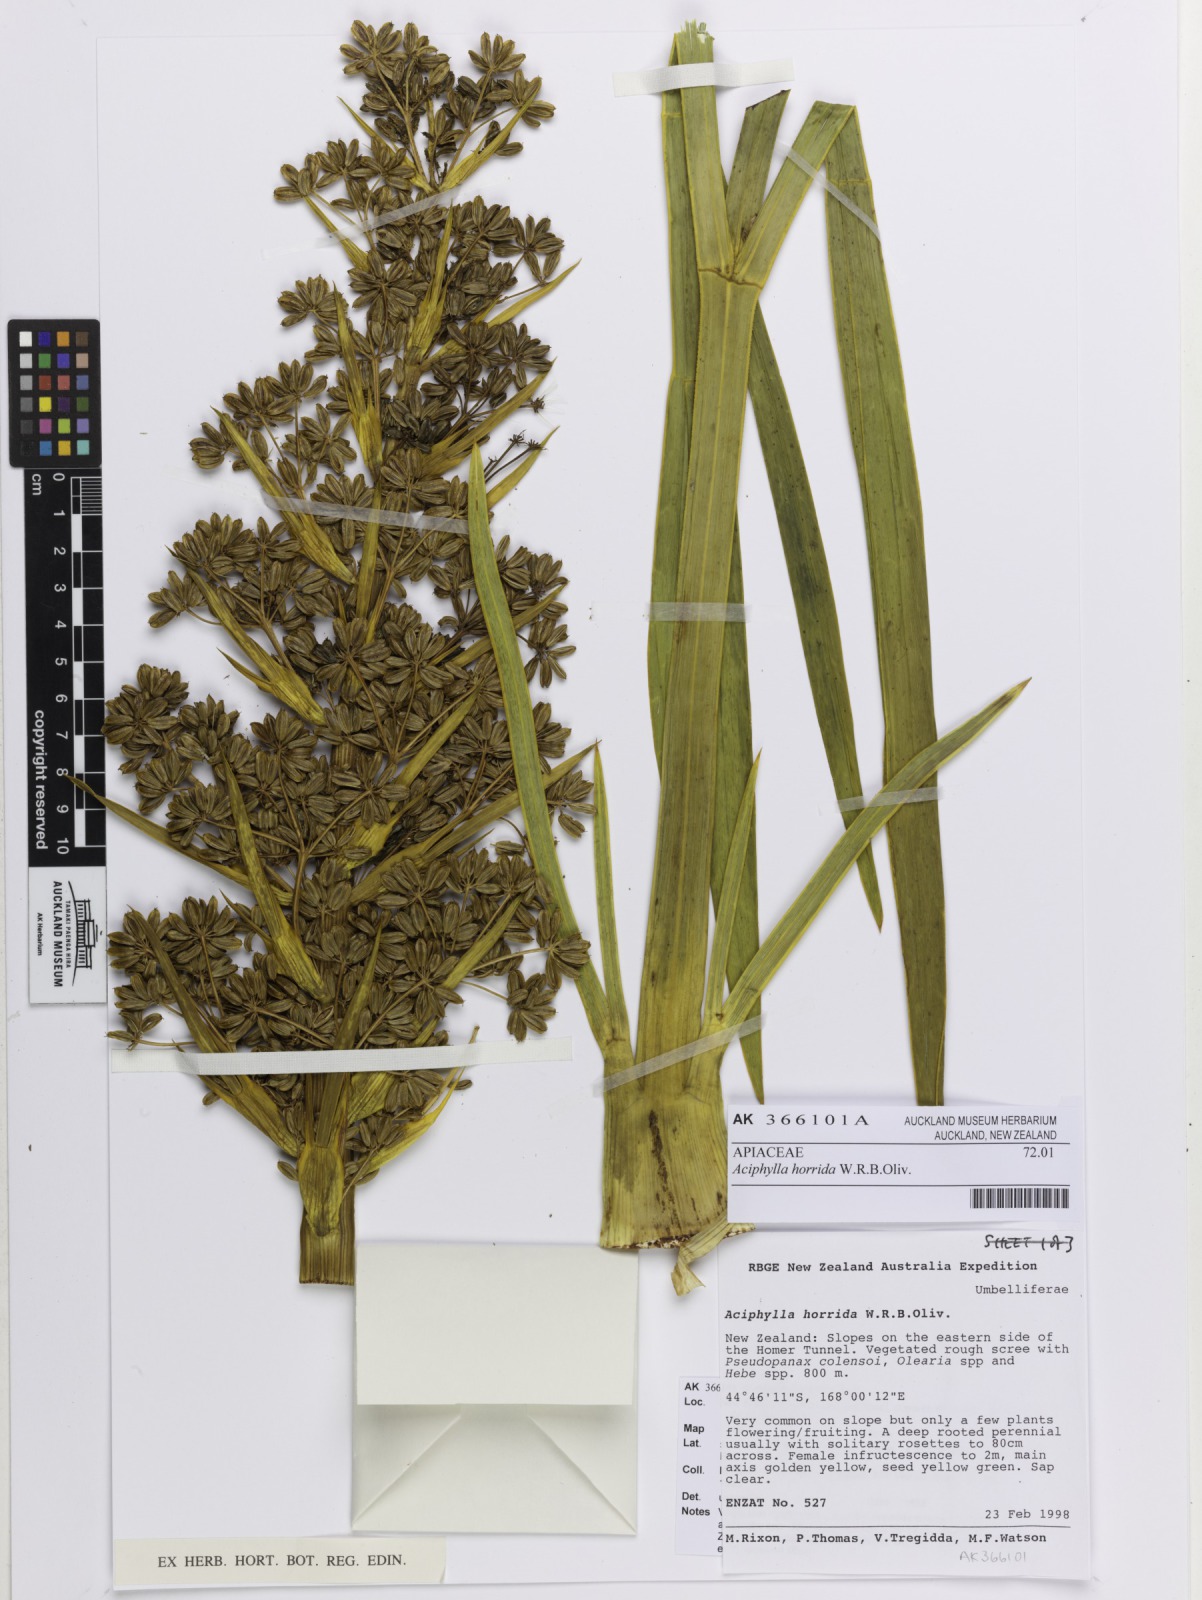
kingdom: Plantae
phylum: Tracheophyta
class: Magnoliopsida
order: Apiales
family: Apiaceae
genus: Aciphylla
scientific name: Aciphylla horrida
